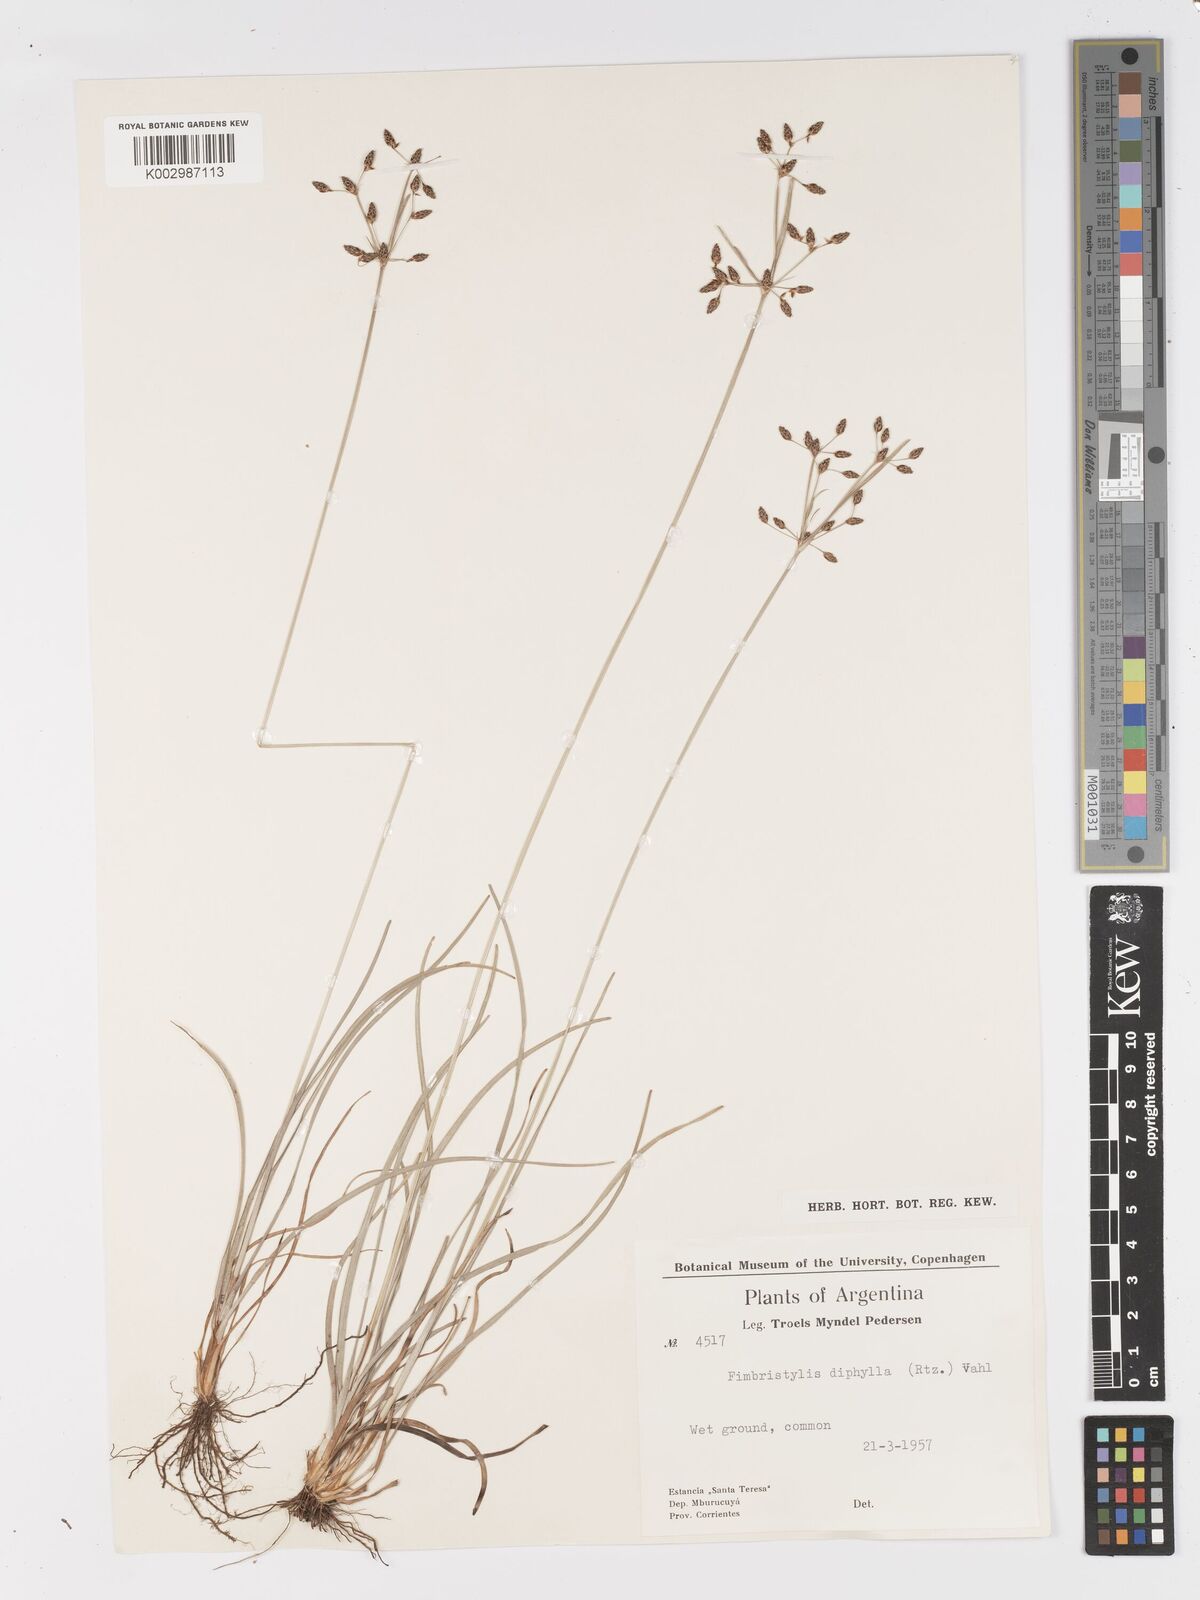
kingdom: Plantae
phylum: Tracheophyta
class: Liliopsida
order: Poales
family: Cyperaceae
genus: Fimbristylis
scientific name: Fimbristylis dichotoma
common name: Forked fimbry
